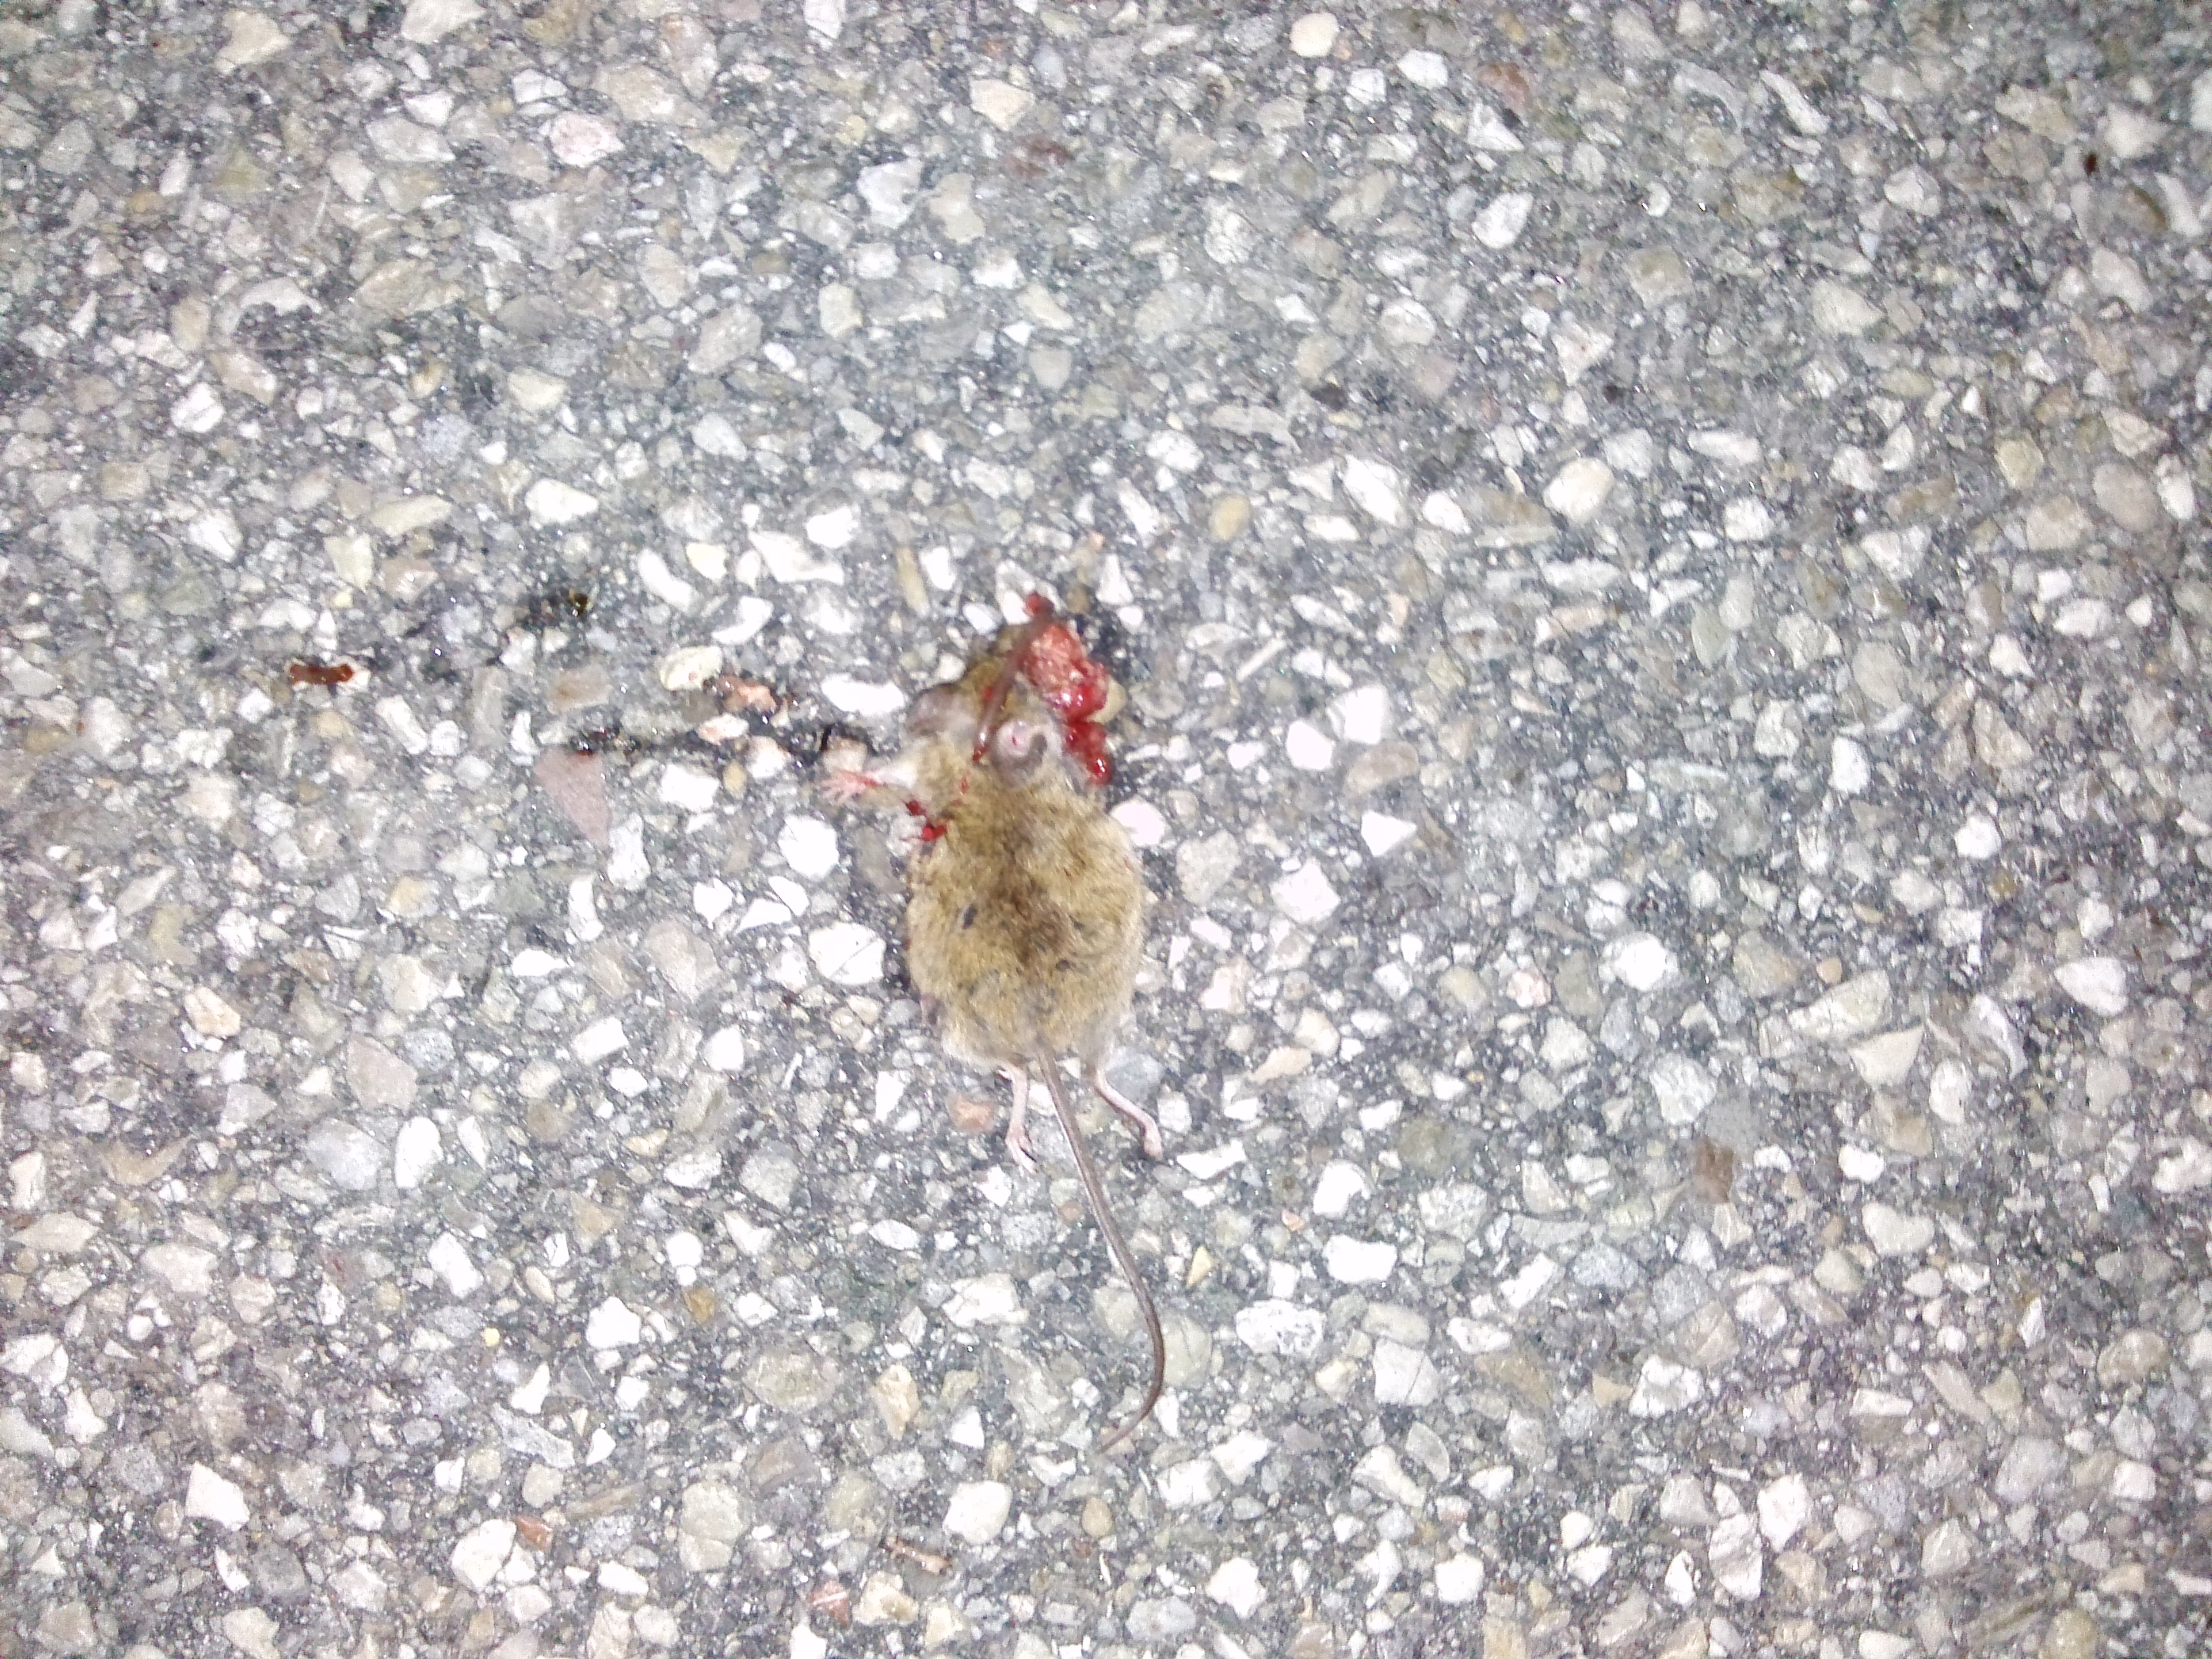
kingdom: Animalia
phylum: Chordata
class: Mammalia
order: Rodentia
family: Muridae
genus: Apodemus
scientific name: Apodemus
